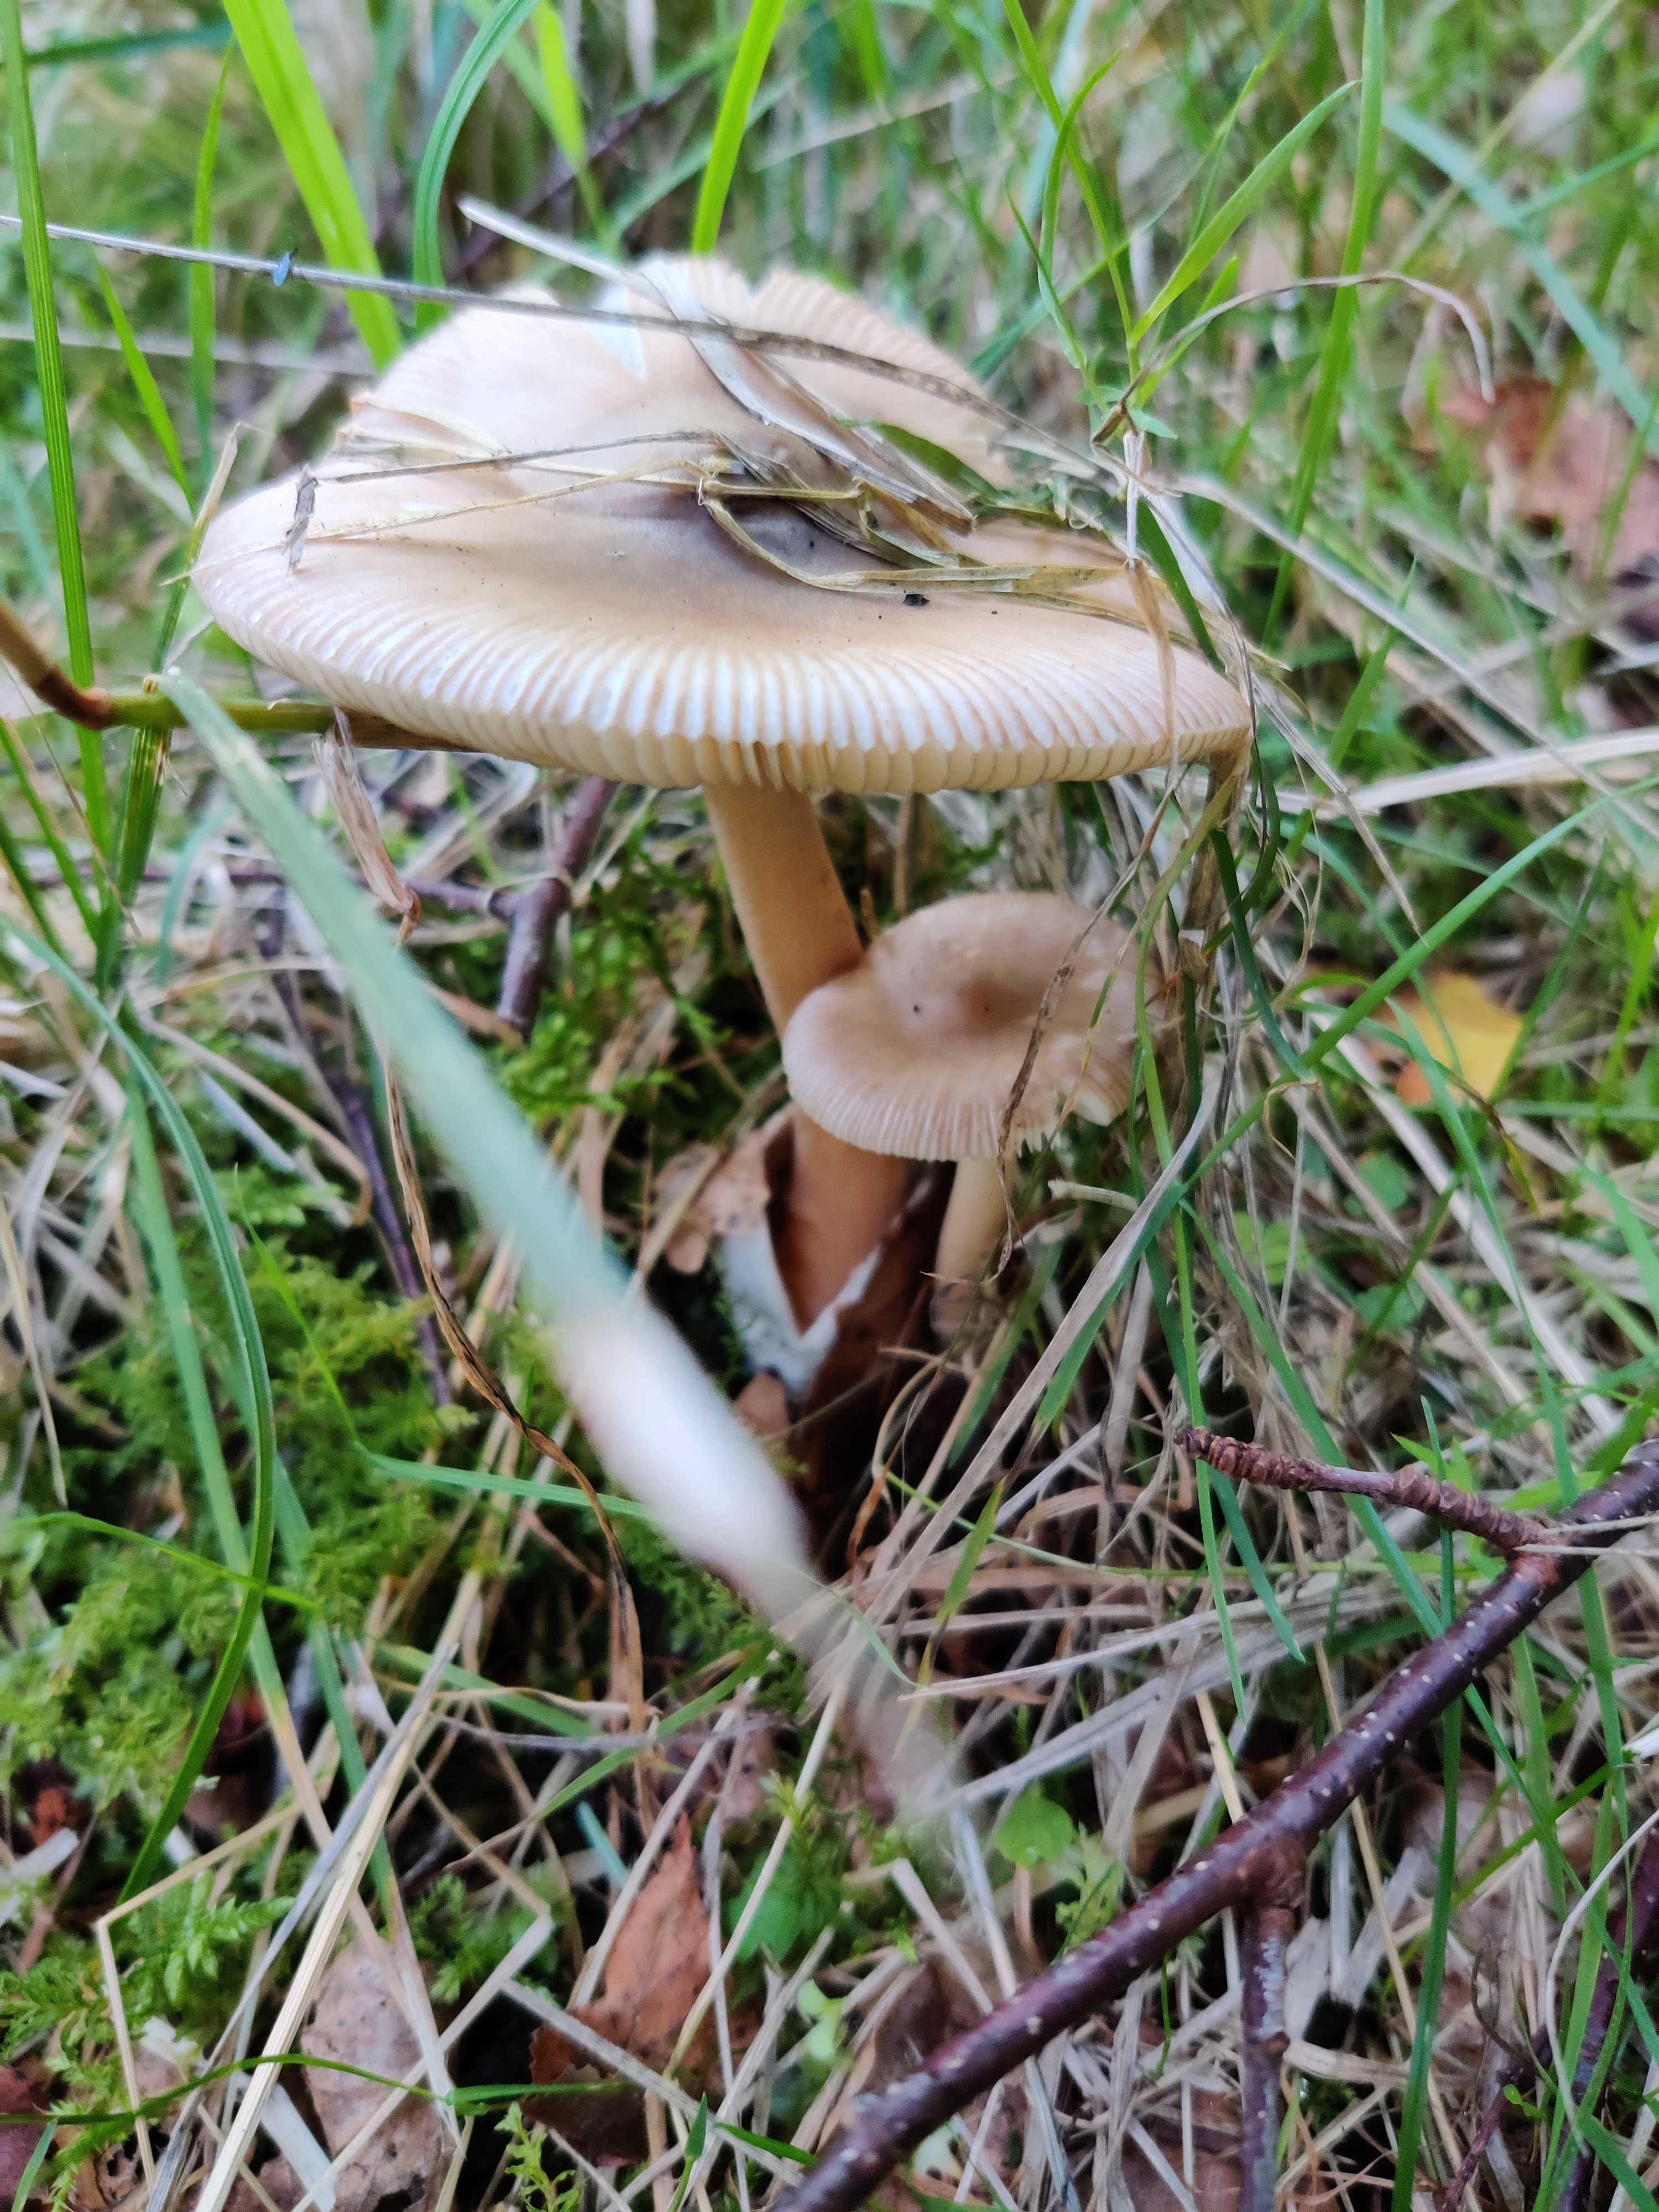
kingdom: Fungi
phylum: Basidiomycota
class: Agaricomycetes
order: Agaricales
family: Amanitaceae
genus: Amanita
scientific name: Amanita fulva
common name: brun kam-fluesvamp
